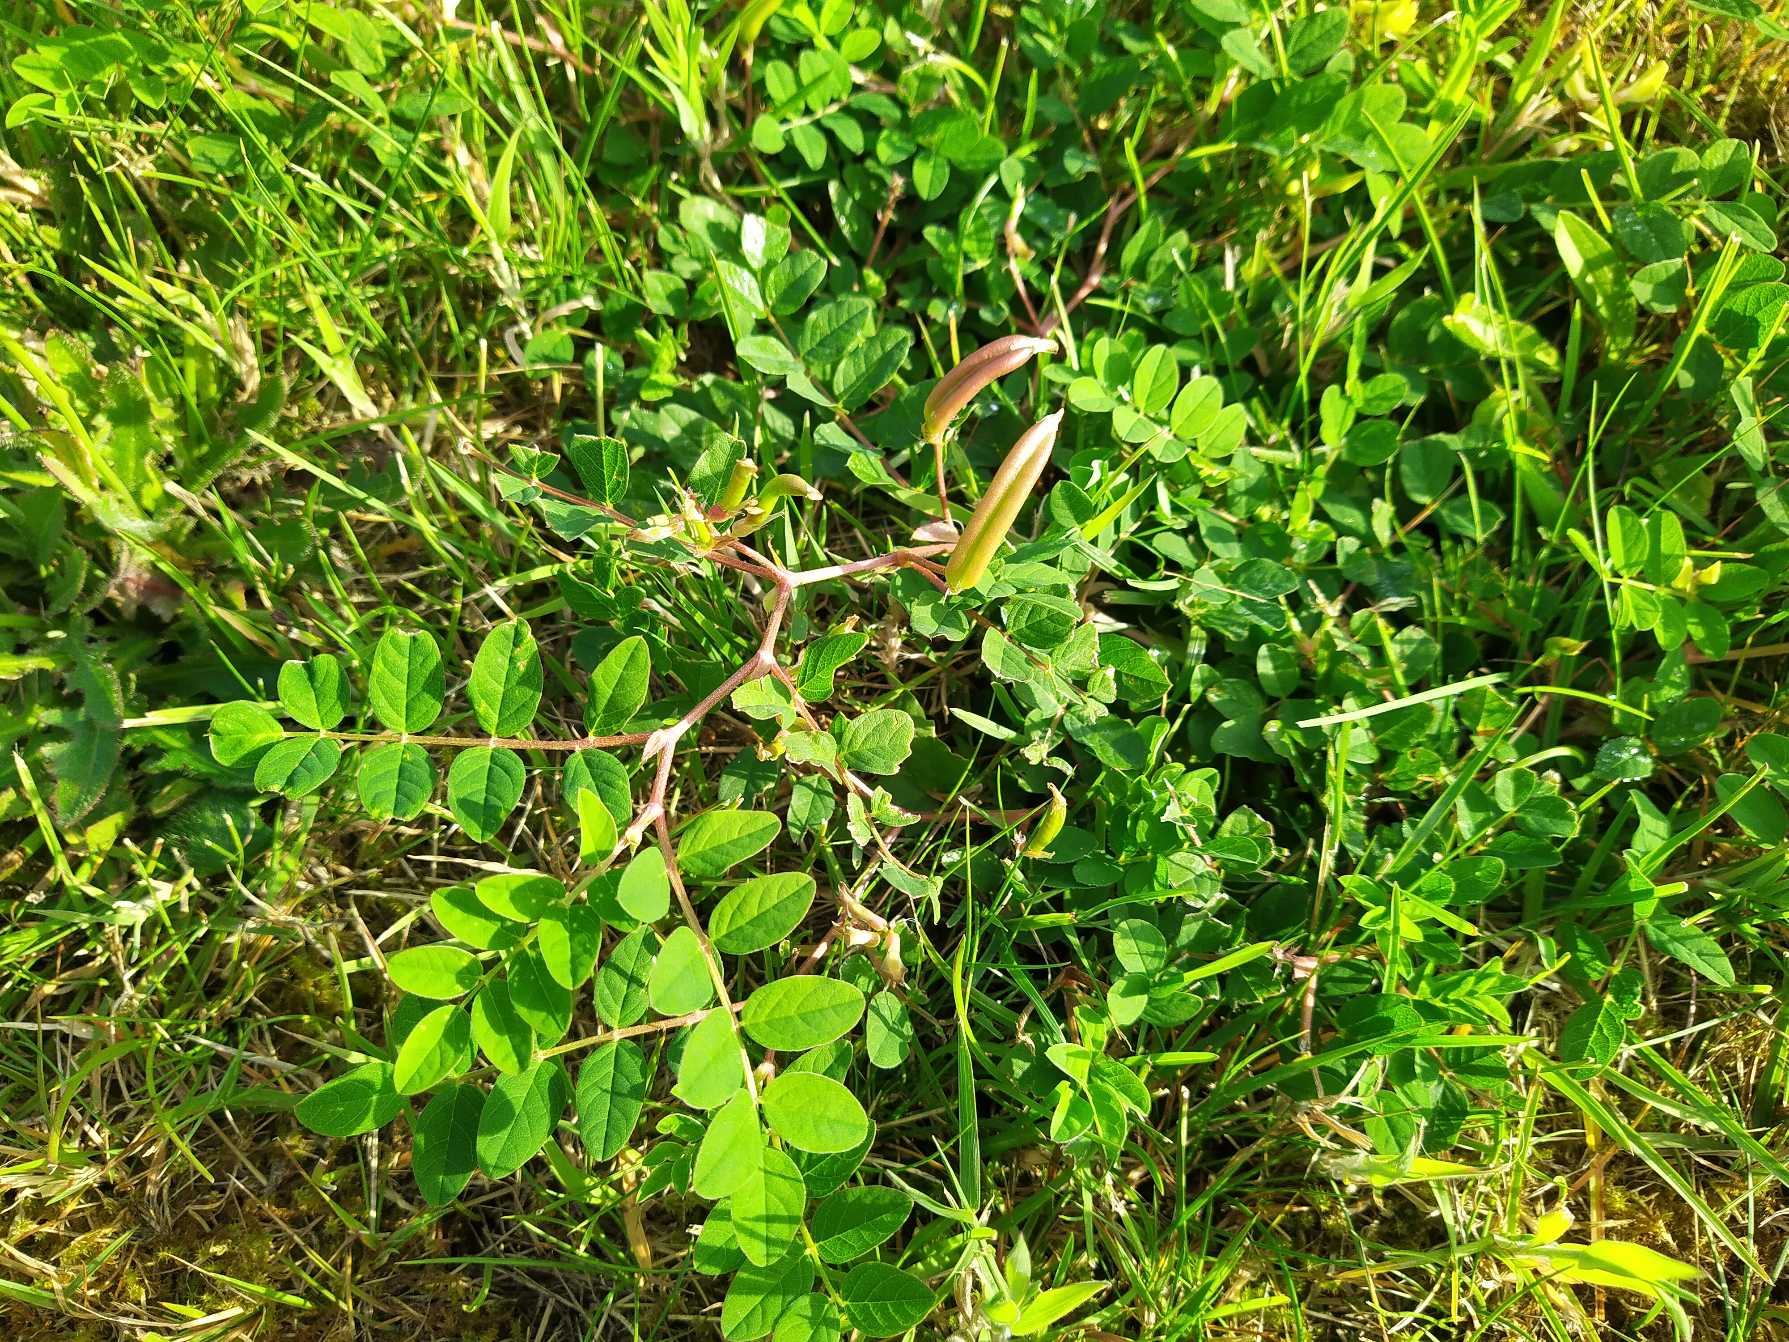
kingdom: Plantae
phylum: Tracheophyta
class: Magnoliopsida
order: Fabales
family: Fabaceae
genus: Astragalus
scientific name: Astragalus glycyphyllos
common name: Sød astragel
